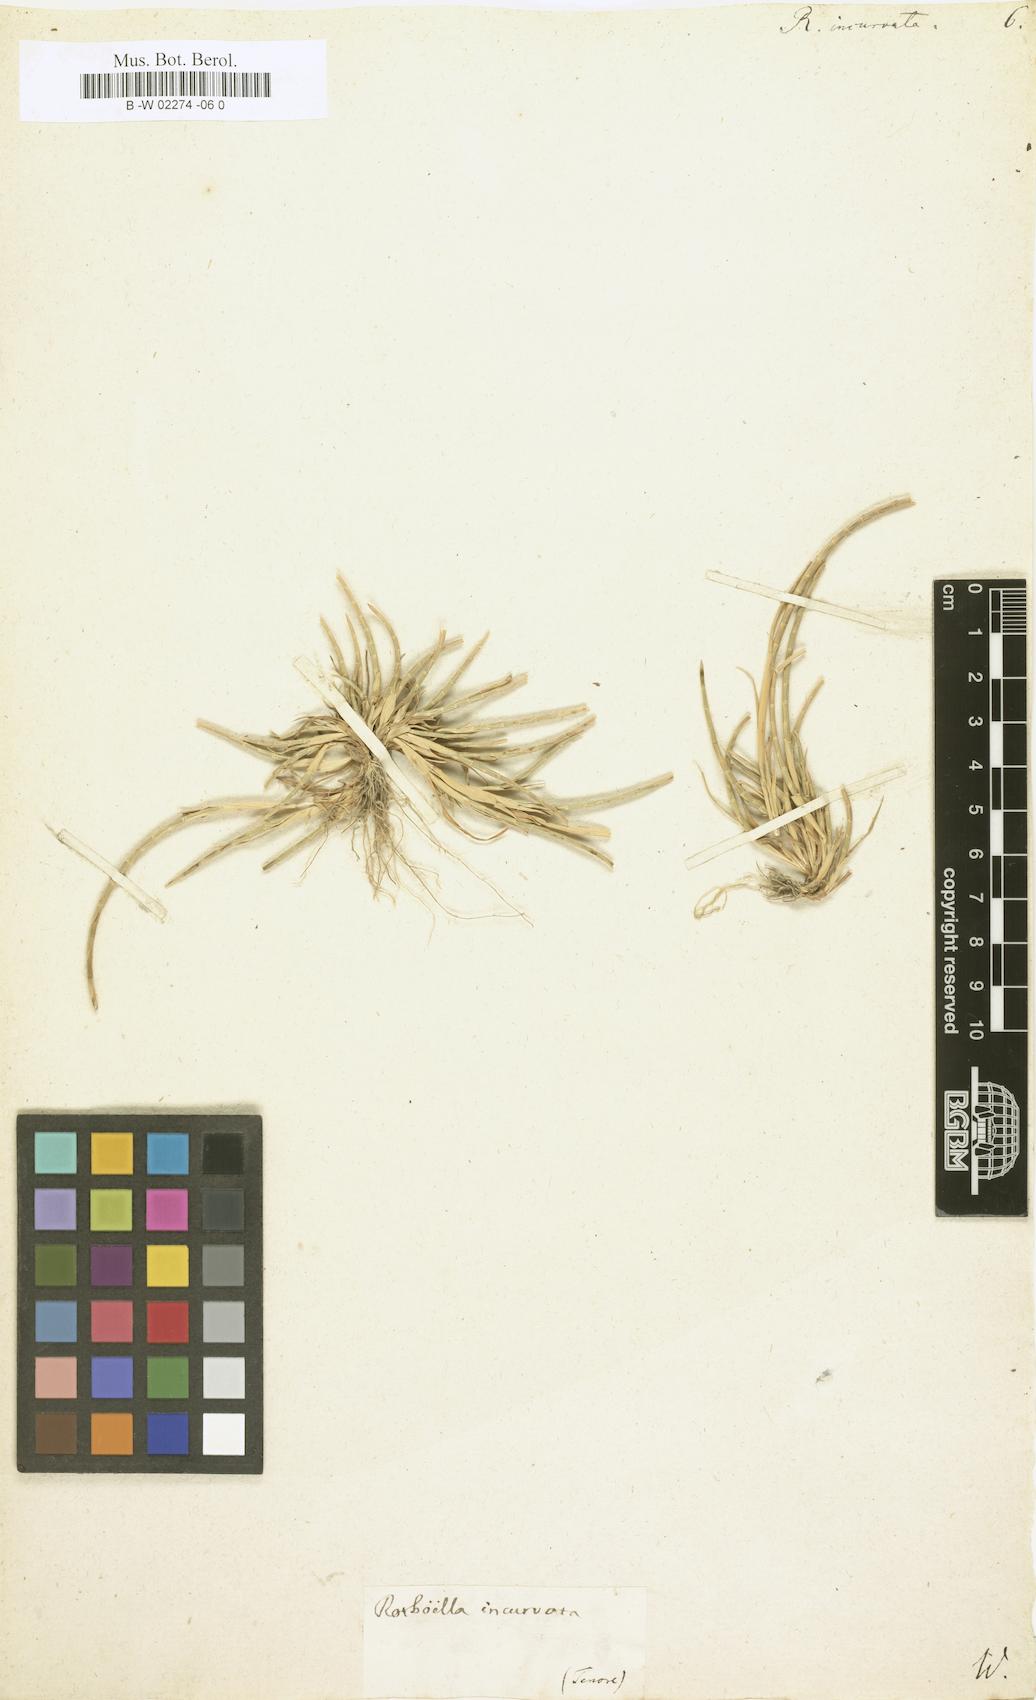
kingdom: Plantae
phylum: Tracheophyta
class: Liliopsida
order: Poales
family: Poaceae
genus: Rottboellia
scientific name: Rottboellia incurvata
